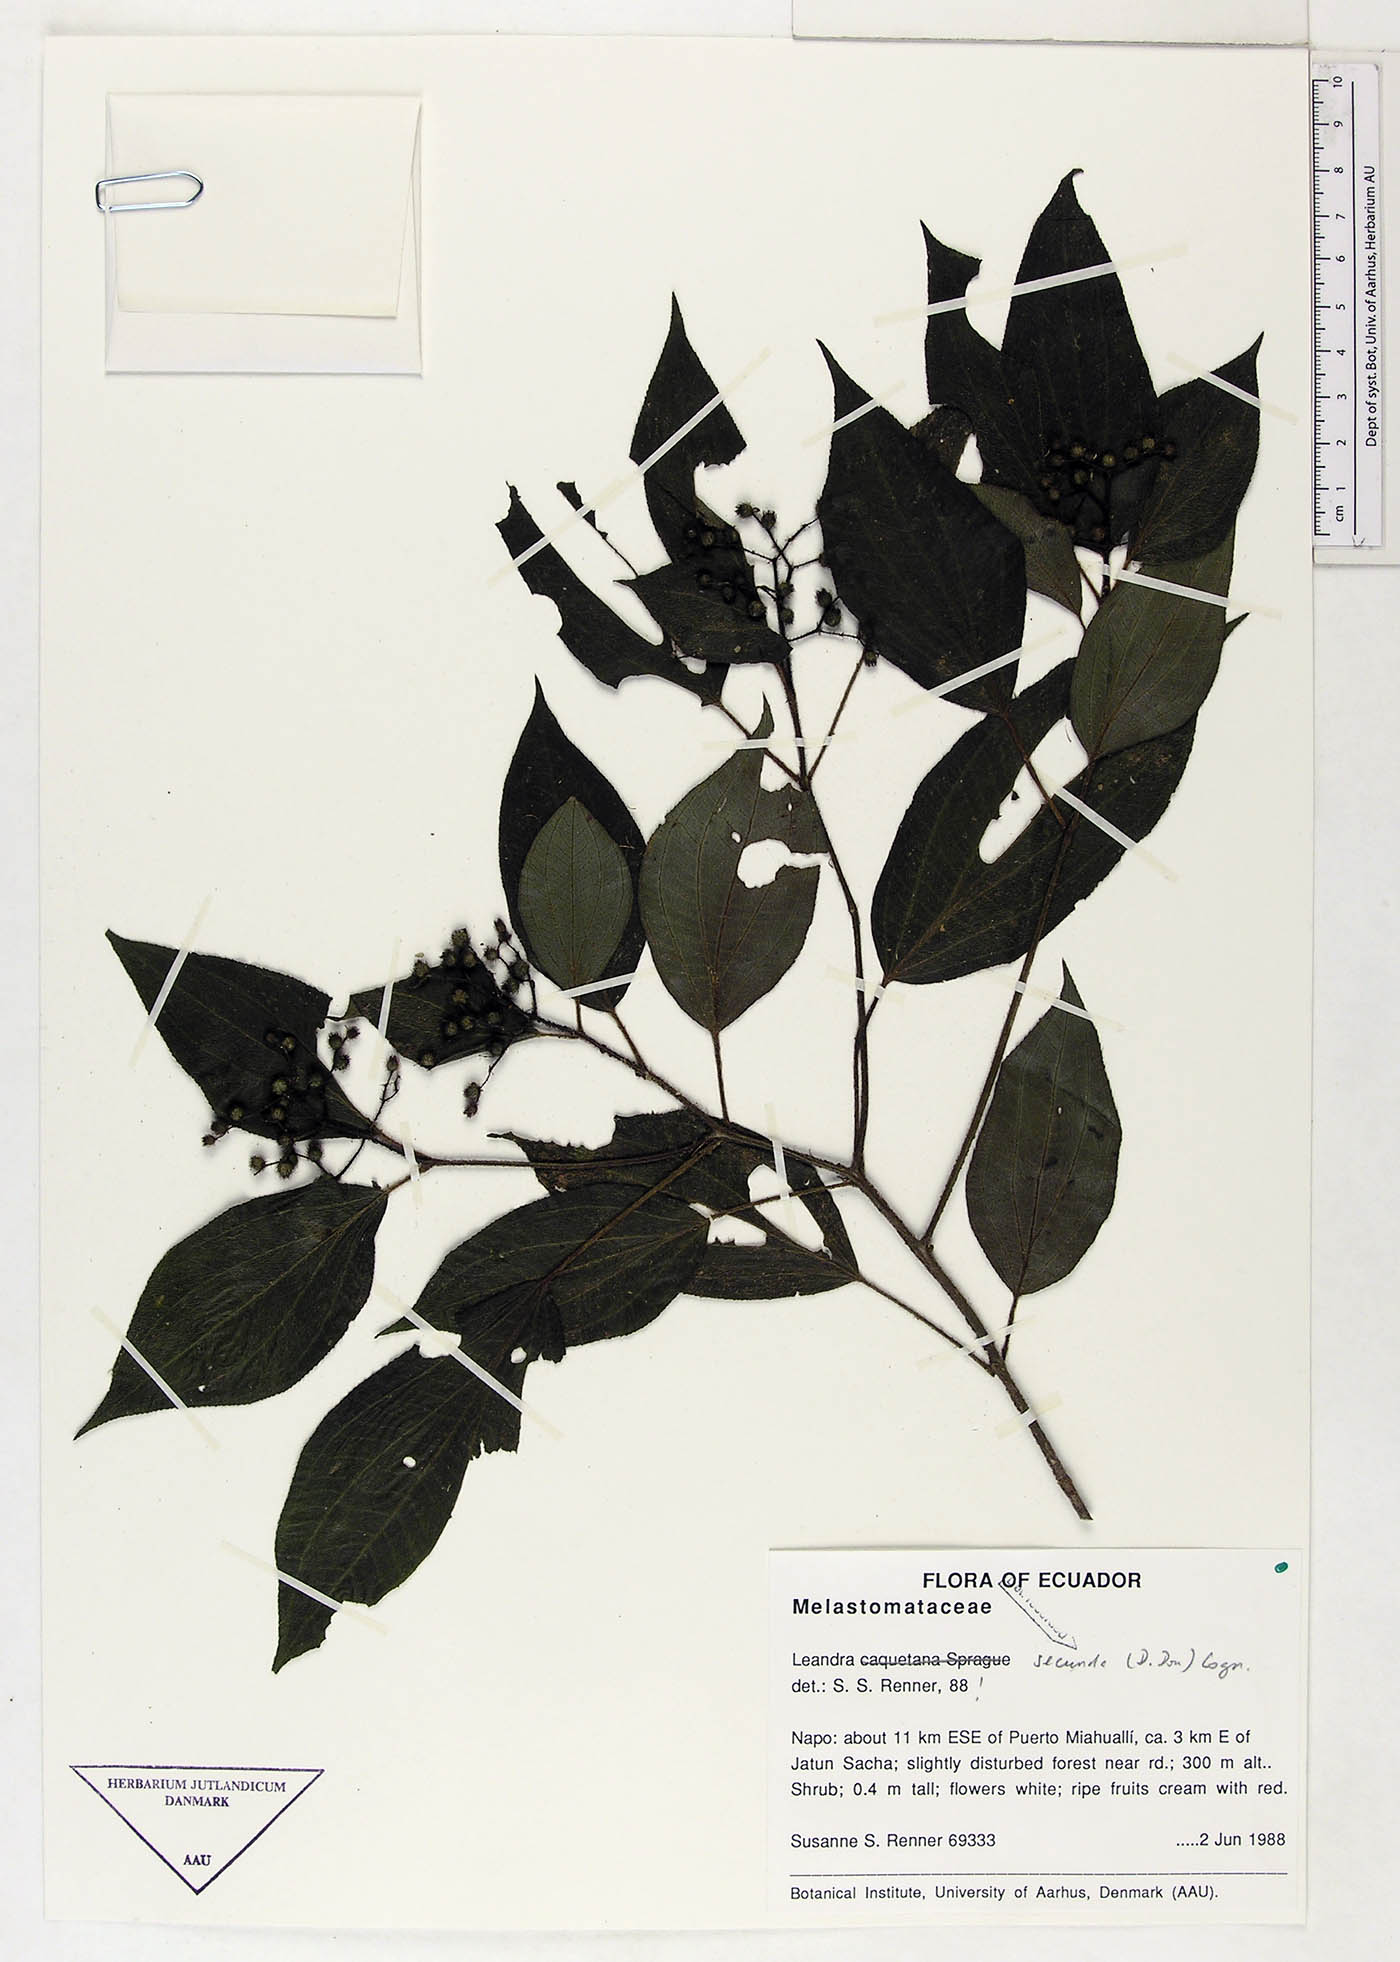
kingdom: Plantae
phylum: Tracheophyta
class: Magnoliopsida
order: Myrtales
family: Melastomataceae
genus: Miconia
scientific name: Miconia secuncaquetana
